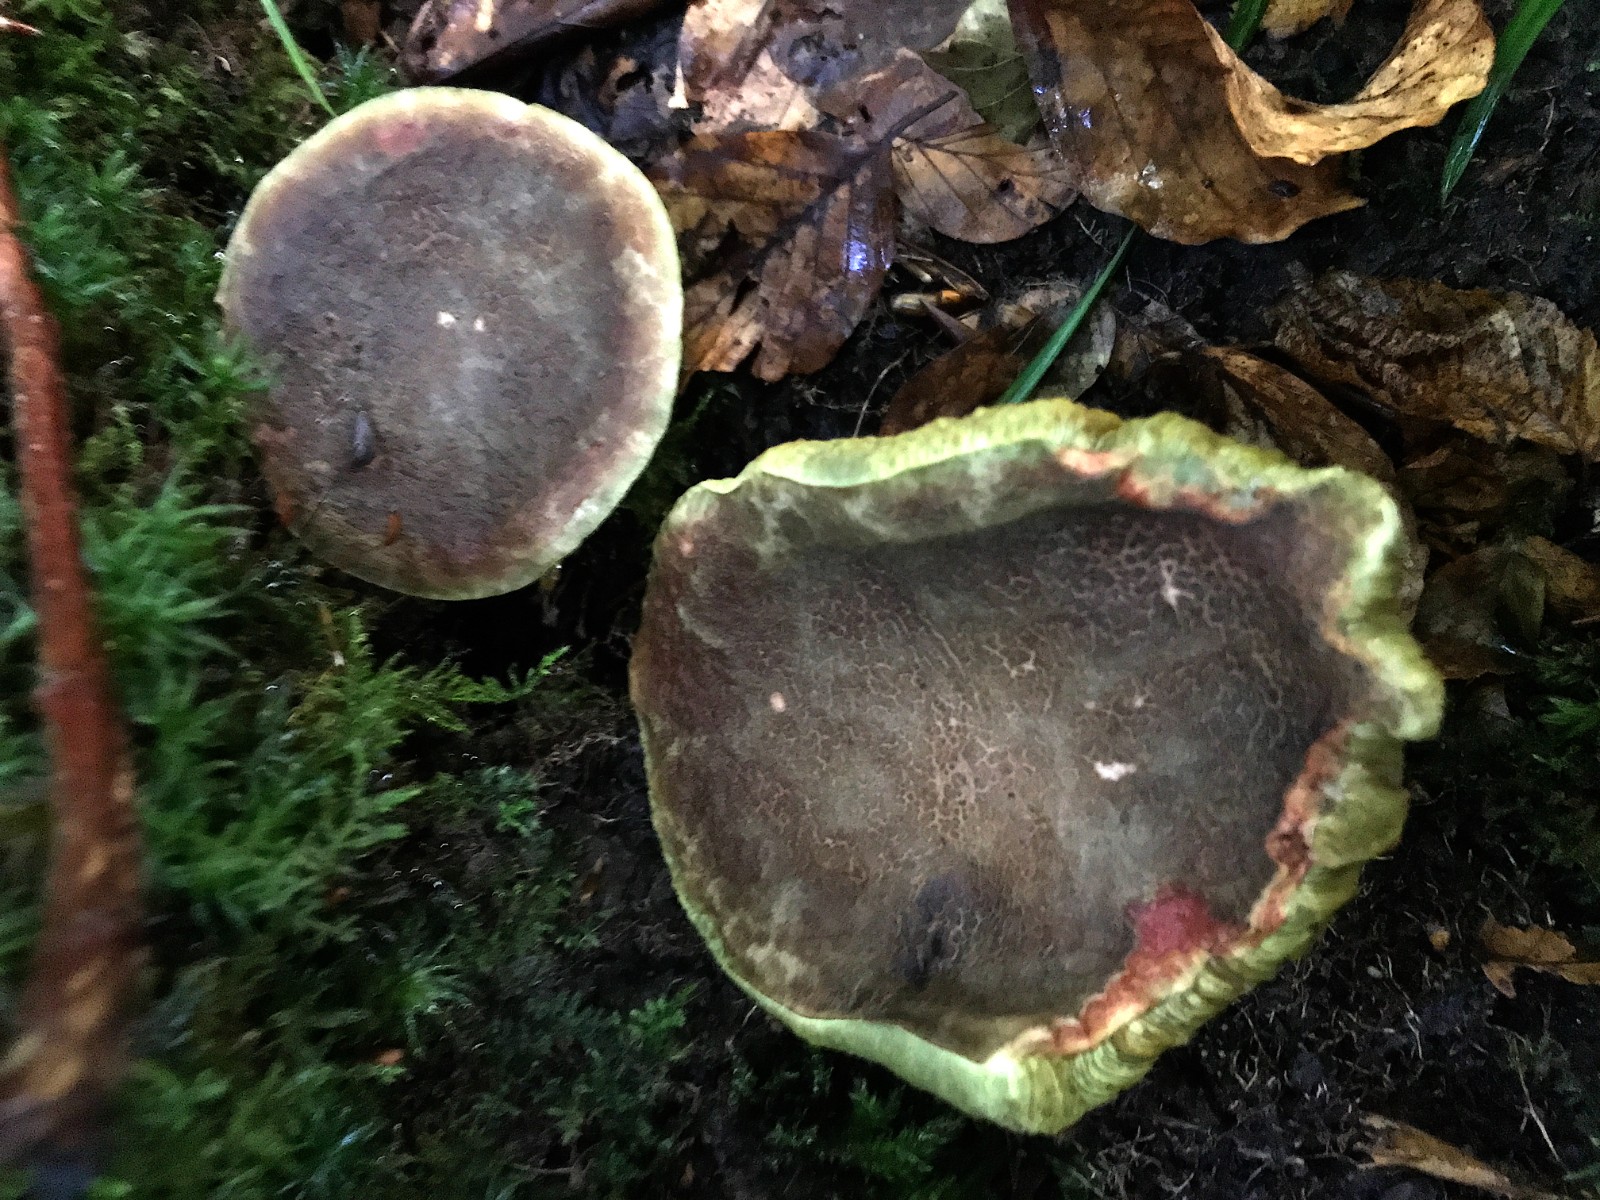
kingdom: Fungi
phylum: Basidiomycota
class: Agaricomycetes
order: Boletales
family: Boletaceae
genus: Xerocomellus
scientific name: Xerocomellus chrysenteron
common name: rødsprukken rørhat
